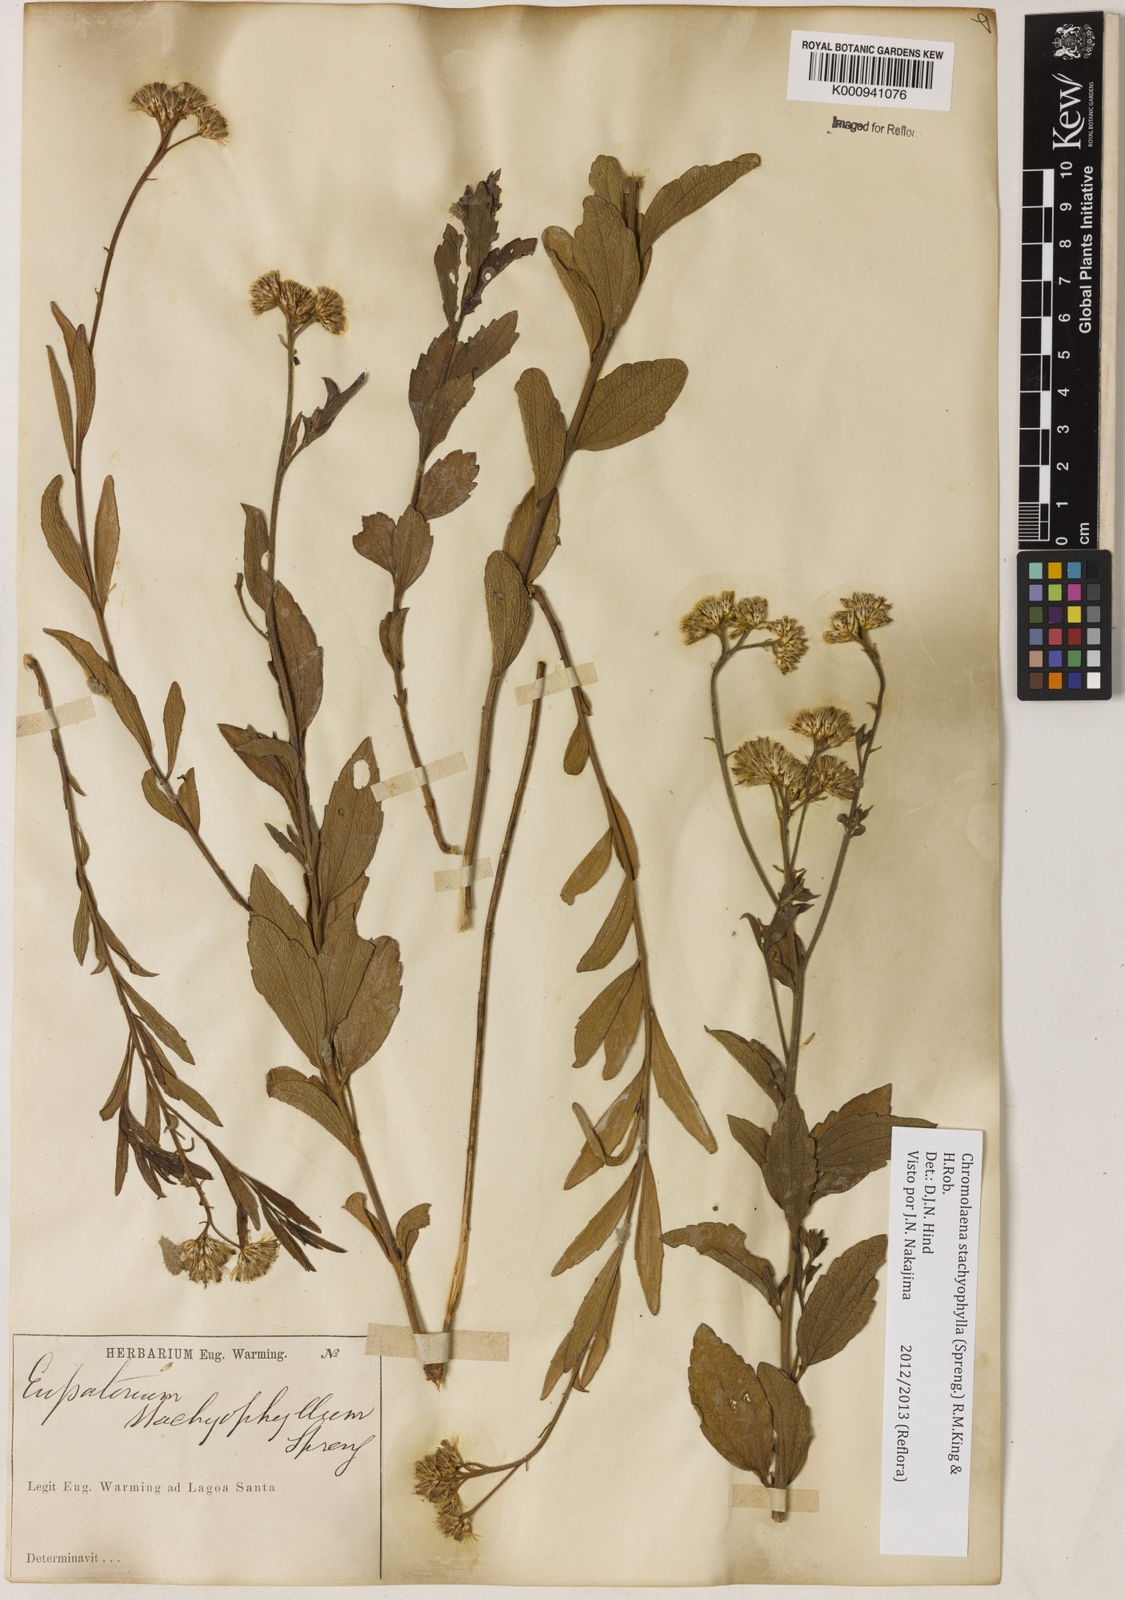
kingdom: Plantae
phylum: Tracheophyta
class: Magnoliopsida
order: Asterales
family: Asteraceae
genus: Chromolaena
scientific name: Chromolaena stachyophylla
